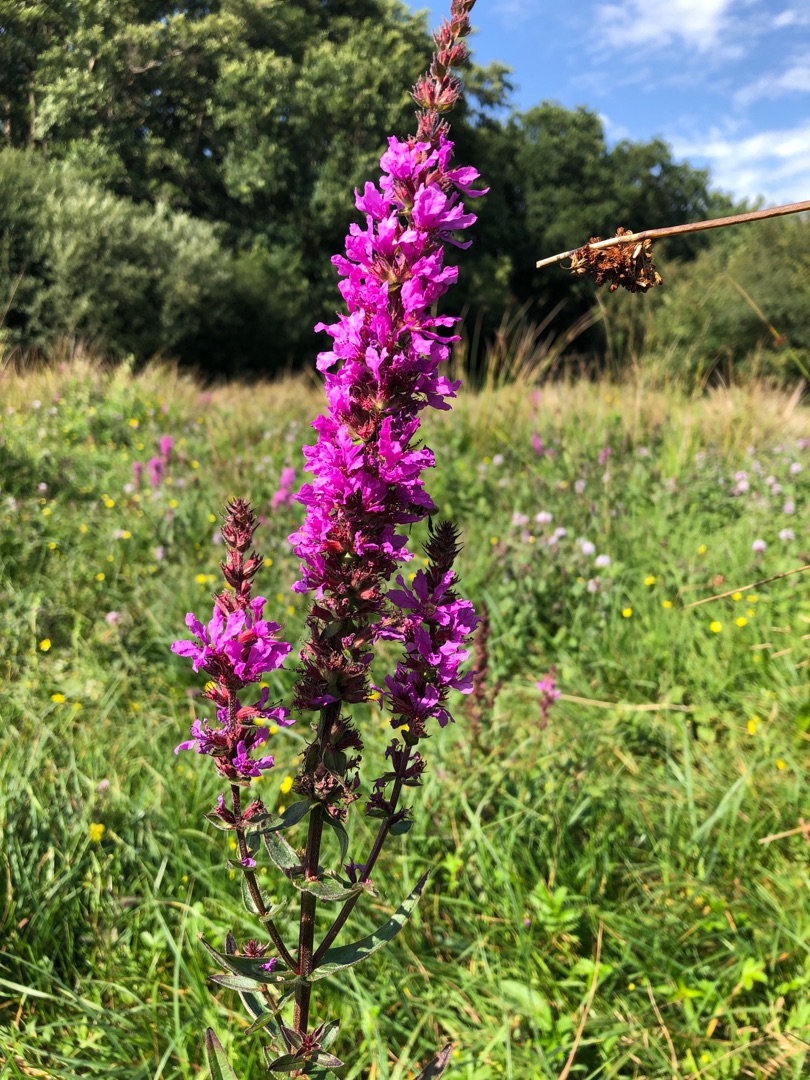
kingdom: Plantae
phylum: Tracheophyta
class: Magnoliopsida
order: Myrtales
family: Lythraceae
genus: Lythrum
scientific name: Lythrum salicaria
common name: Kattehale
